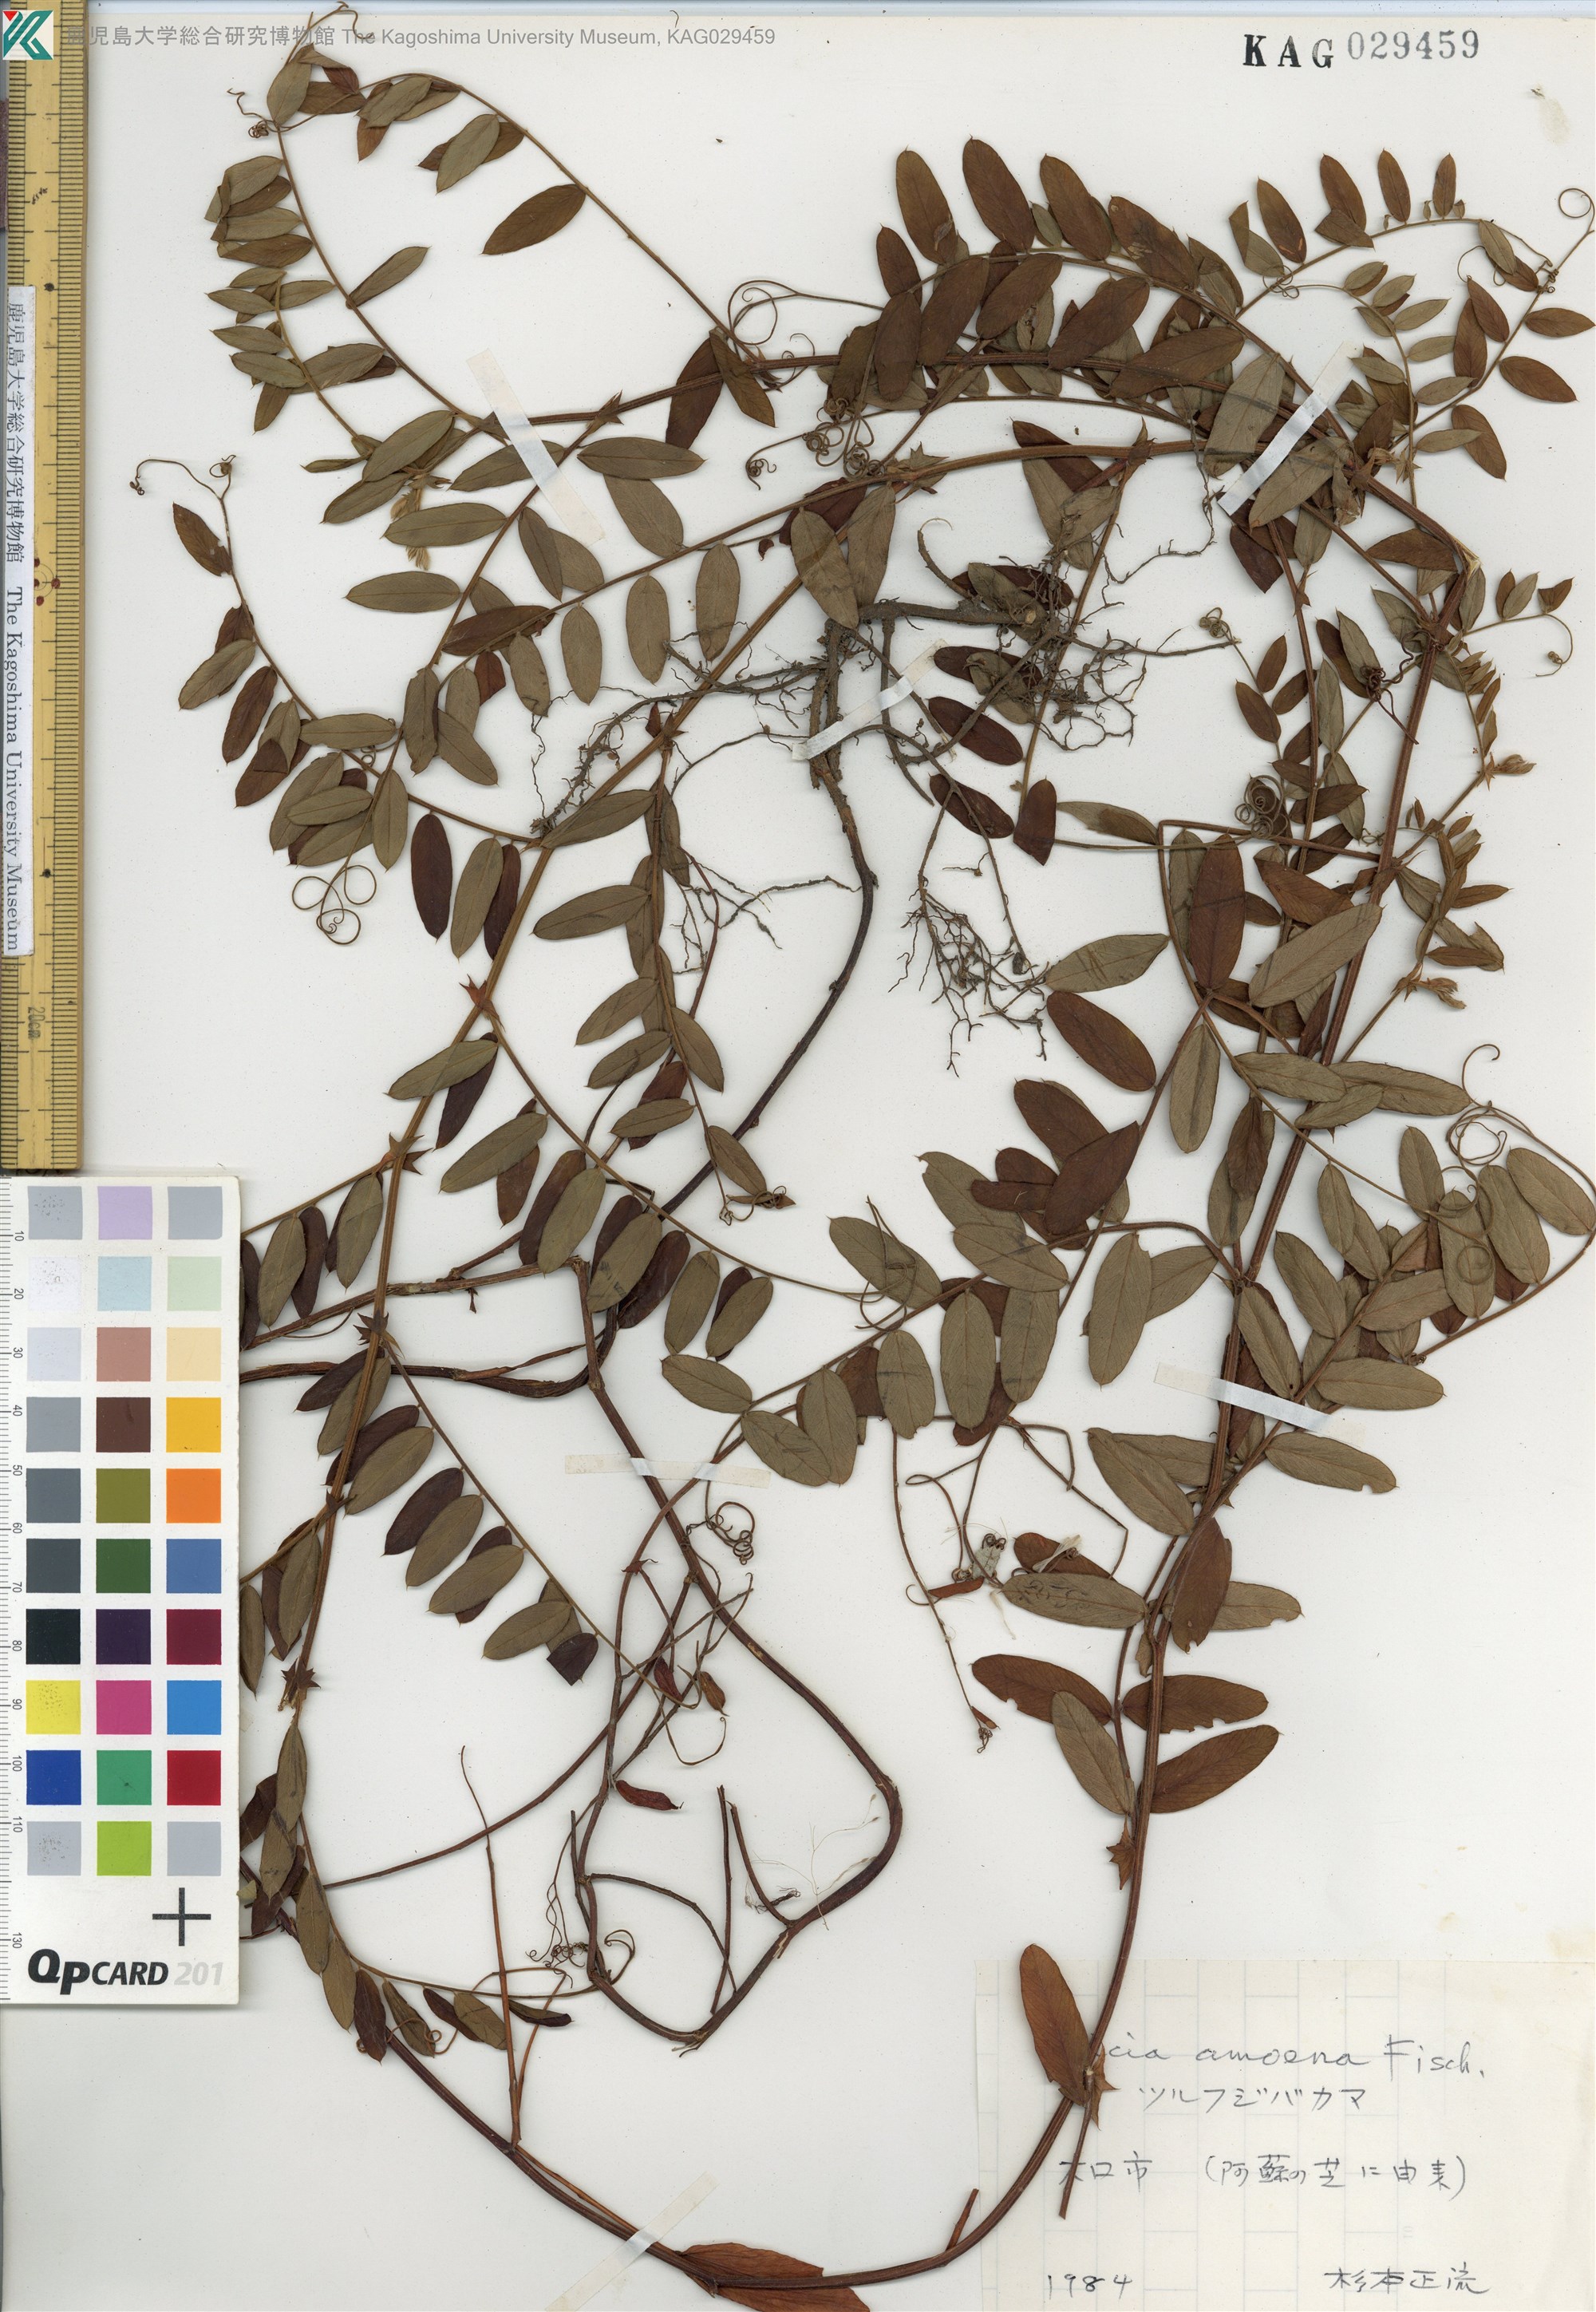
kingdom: Plantae
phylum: Tracheophyta
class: Magnoliopsida
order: Fabales
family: Fabaceae
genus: Vicia
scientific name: Vicia amoena
